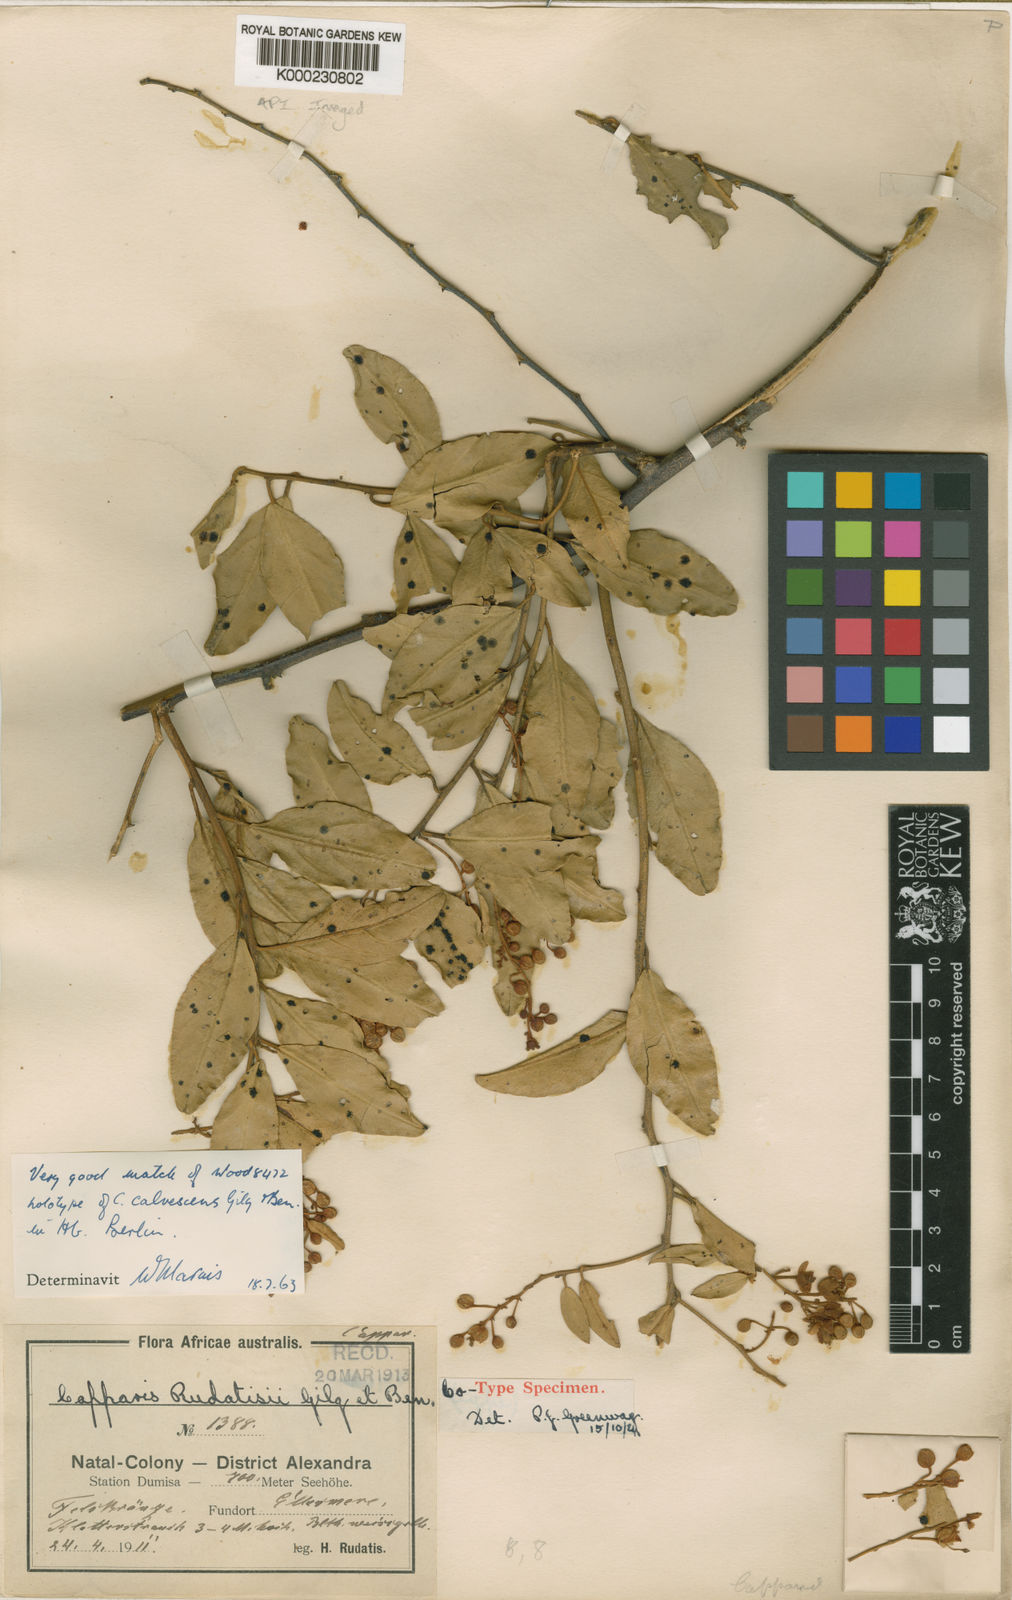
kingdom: Plantae
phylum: Tracheophyta
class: Magnoliopsida
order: Brassicales
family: Capparaceae
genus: Capparis
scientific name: Capparis
